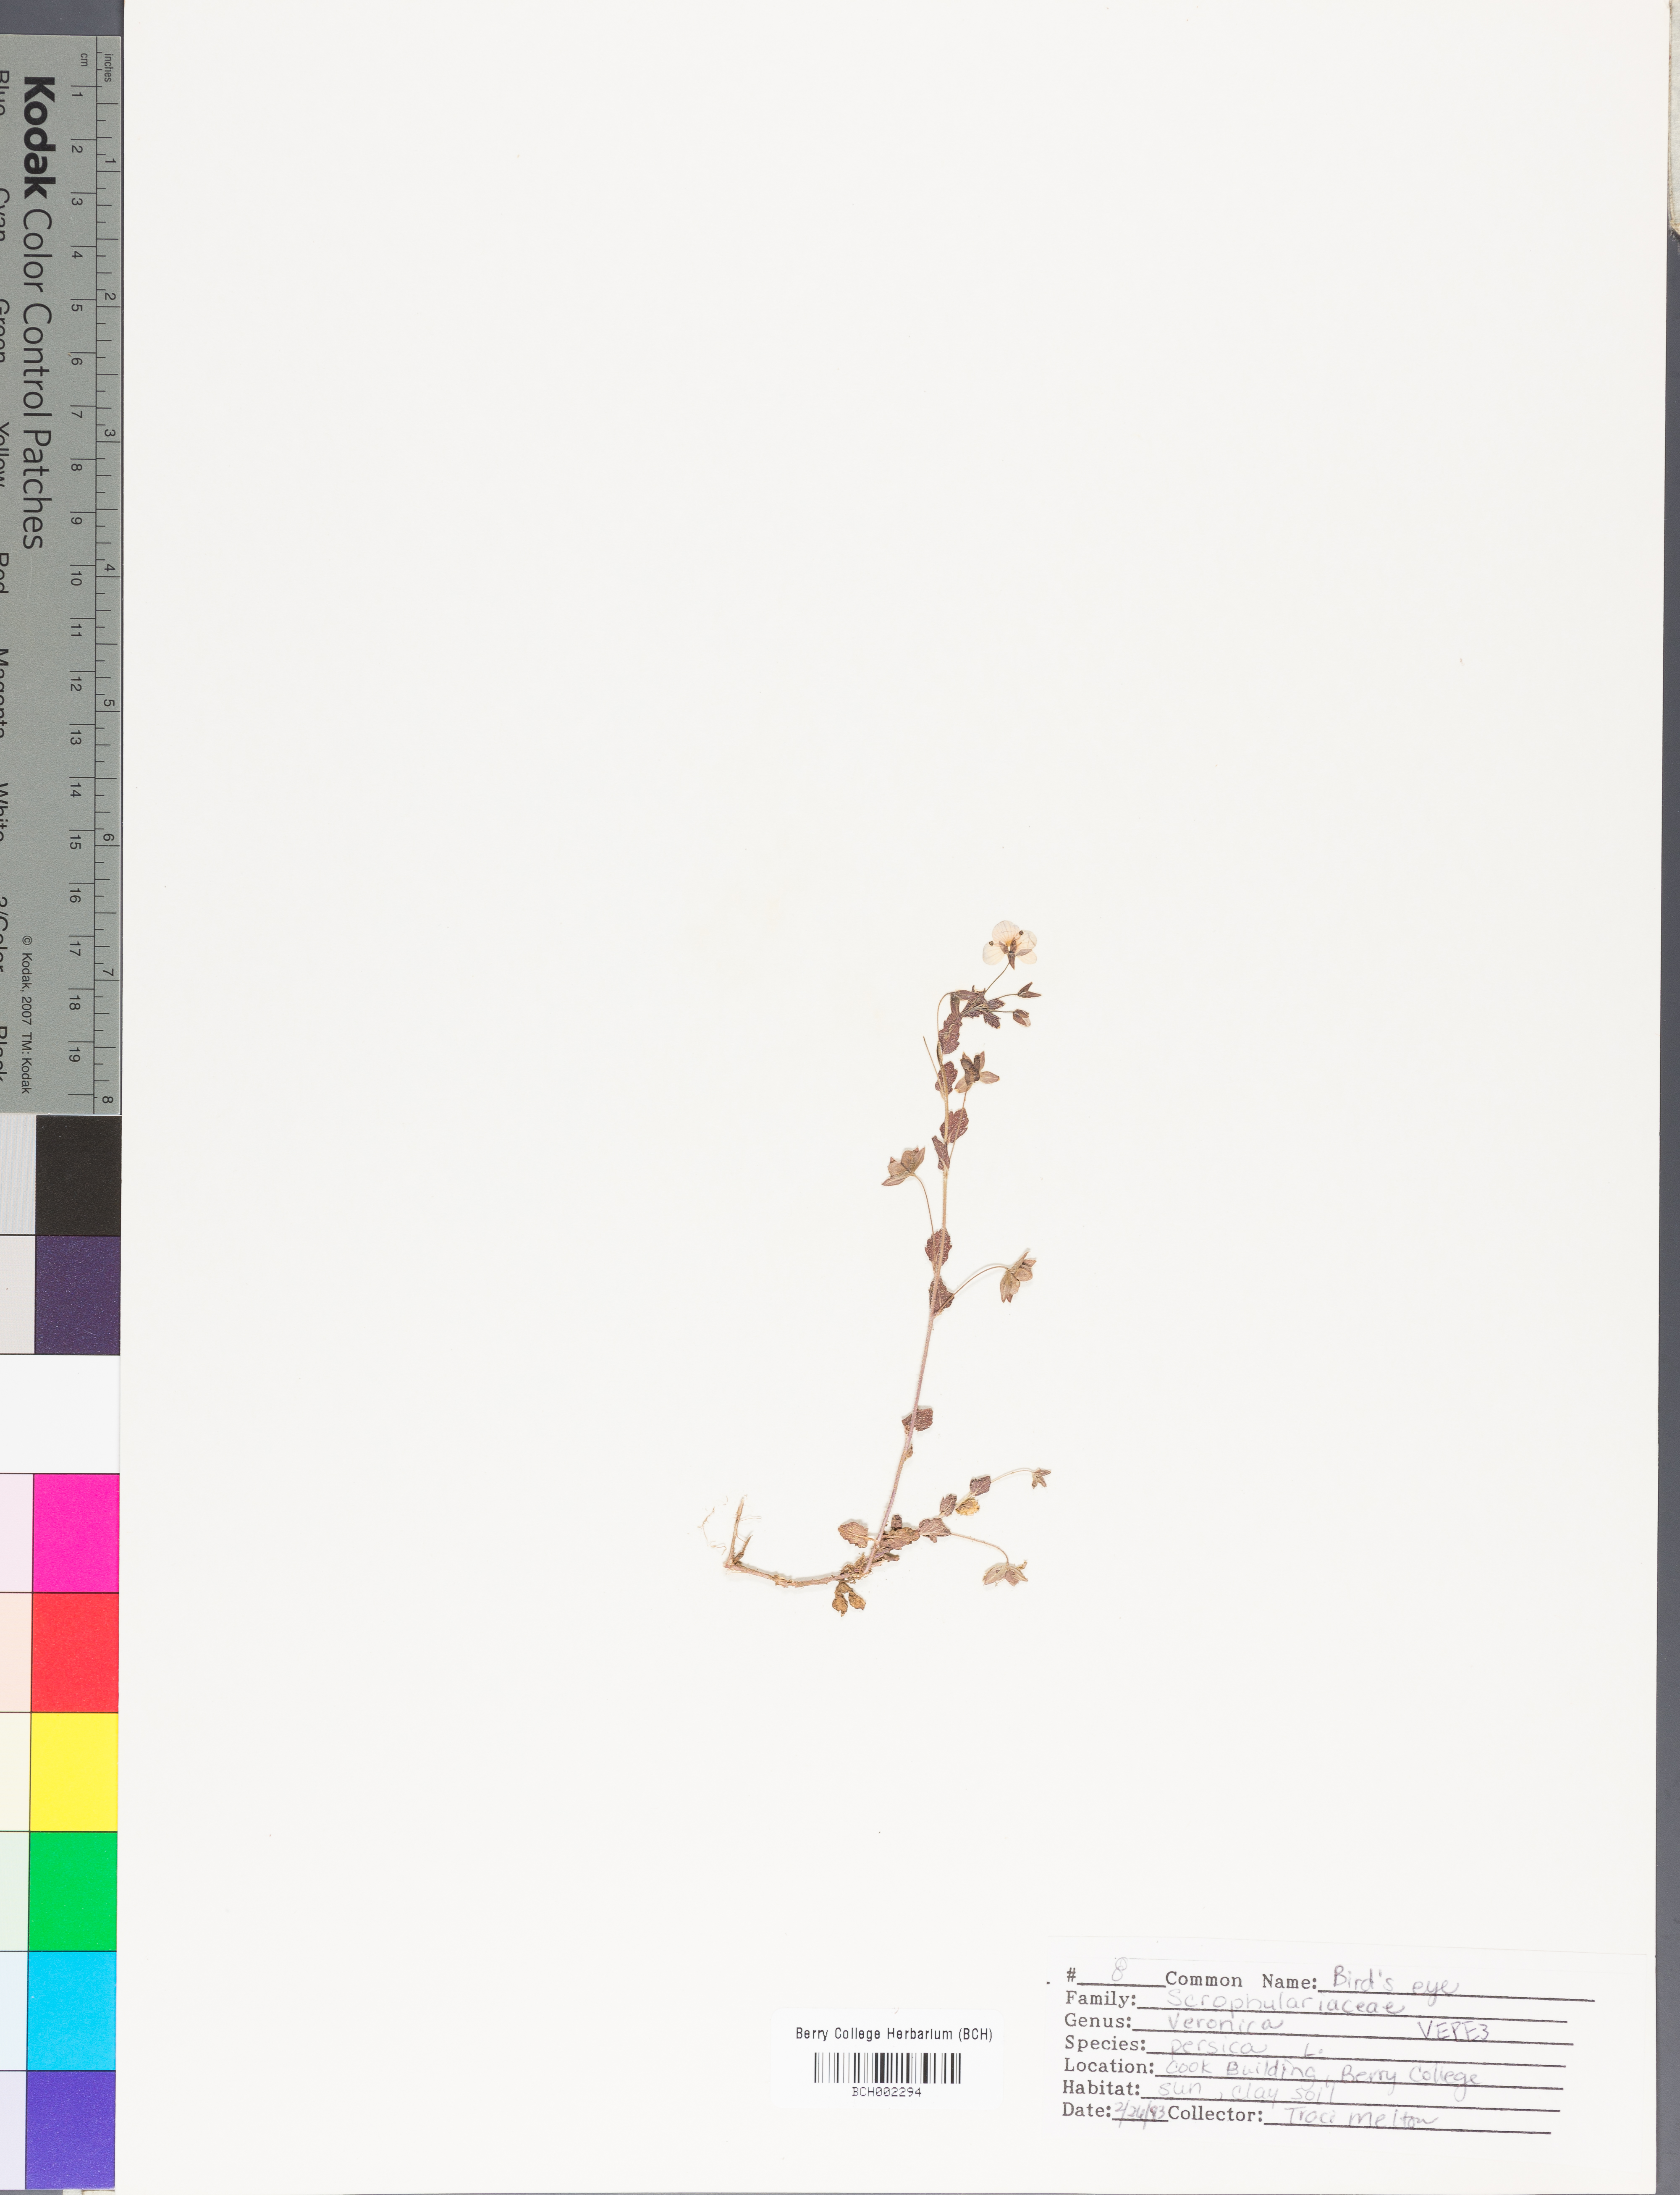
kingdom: Plantae
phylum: Tracheophyta
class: Magnoliopsida
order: Lamiales
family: Plantaginaceae
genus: Veronica
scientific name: Veronica persica
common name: Common field-speedwell
